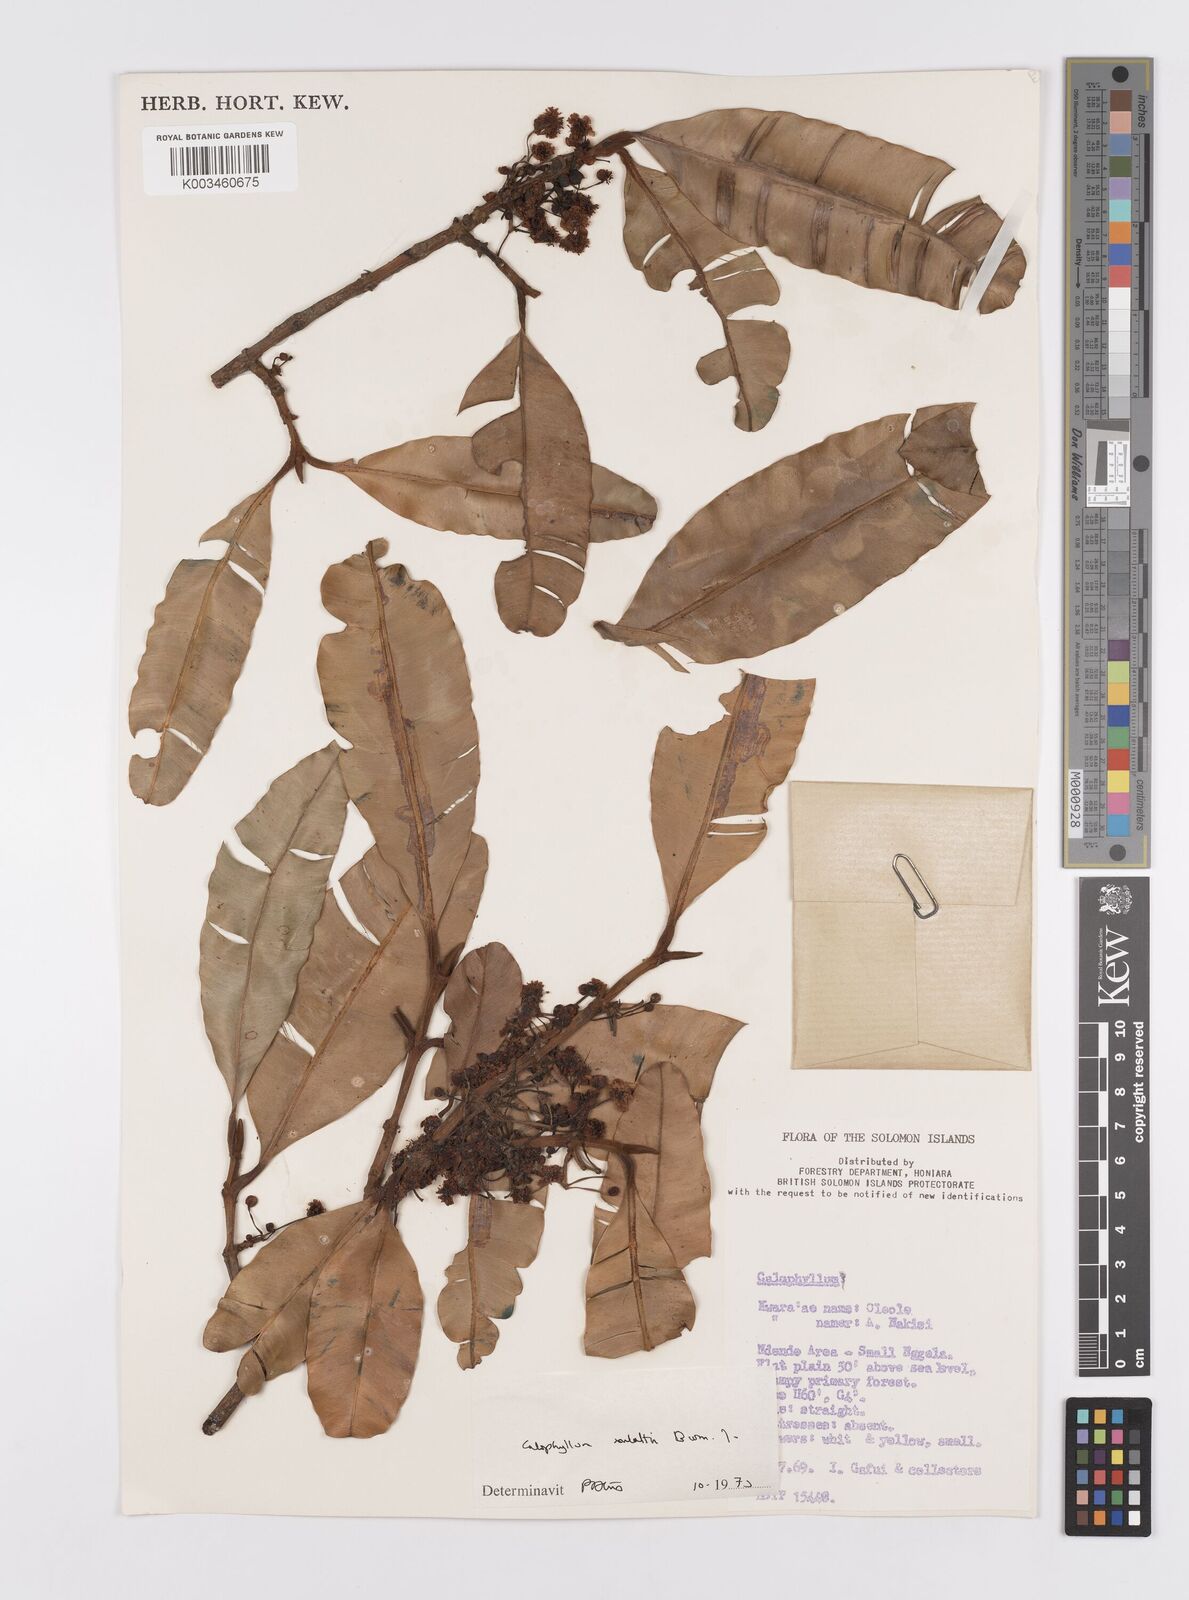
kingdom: Plantae
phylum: Tracheophyta
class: Magnoliopsida
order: Malpighiales
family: Calophyllaceae
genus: Calophyllum
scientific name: Calophyllum soulattri
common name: Bitangoor boonot
